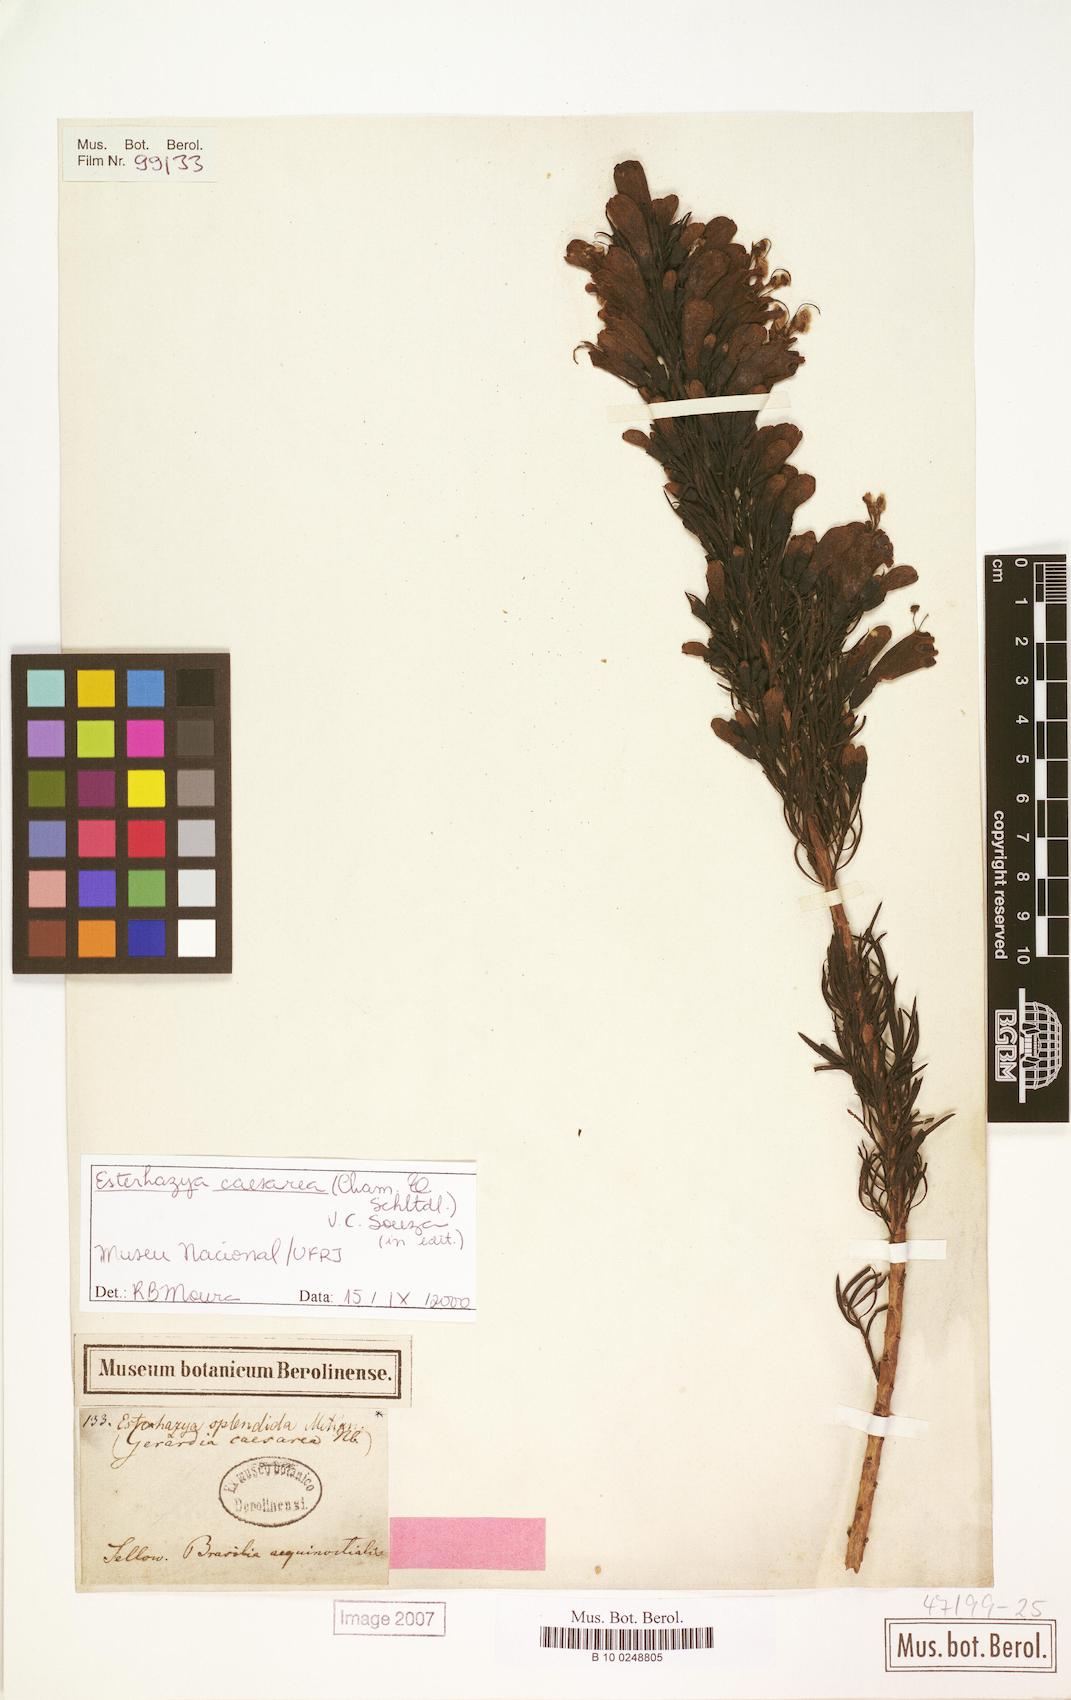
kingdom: Plantae
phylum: Tracheophyta
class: Magnoliopsida
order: Lamiales
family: Orobanchaceae
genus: Esterhazya
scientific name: Esterhazya caesarea
